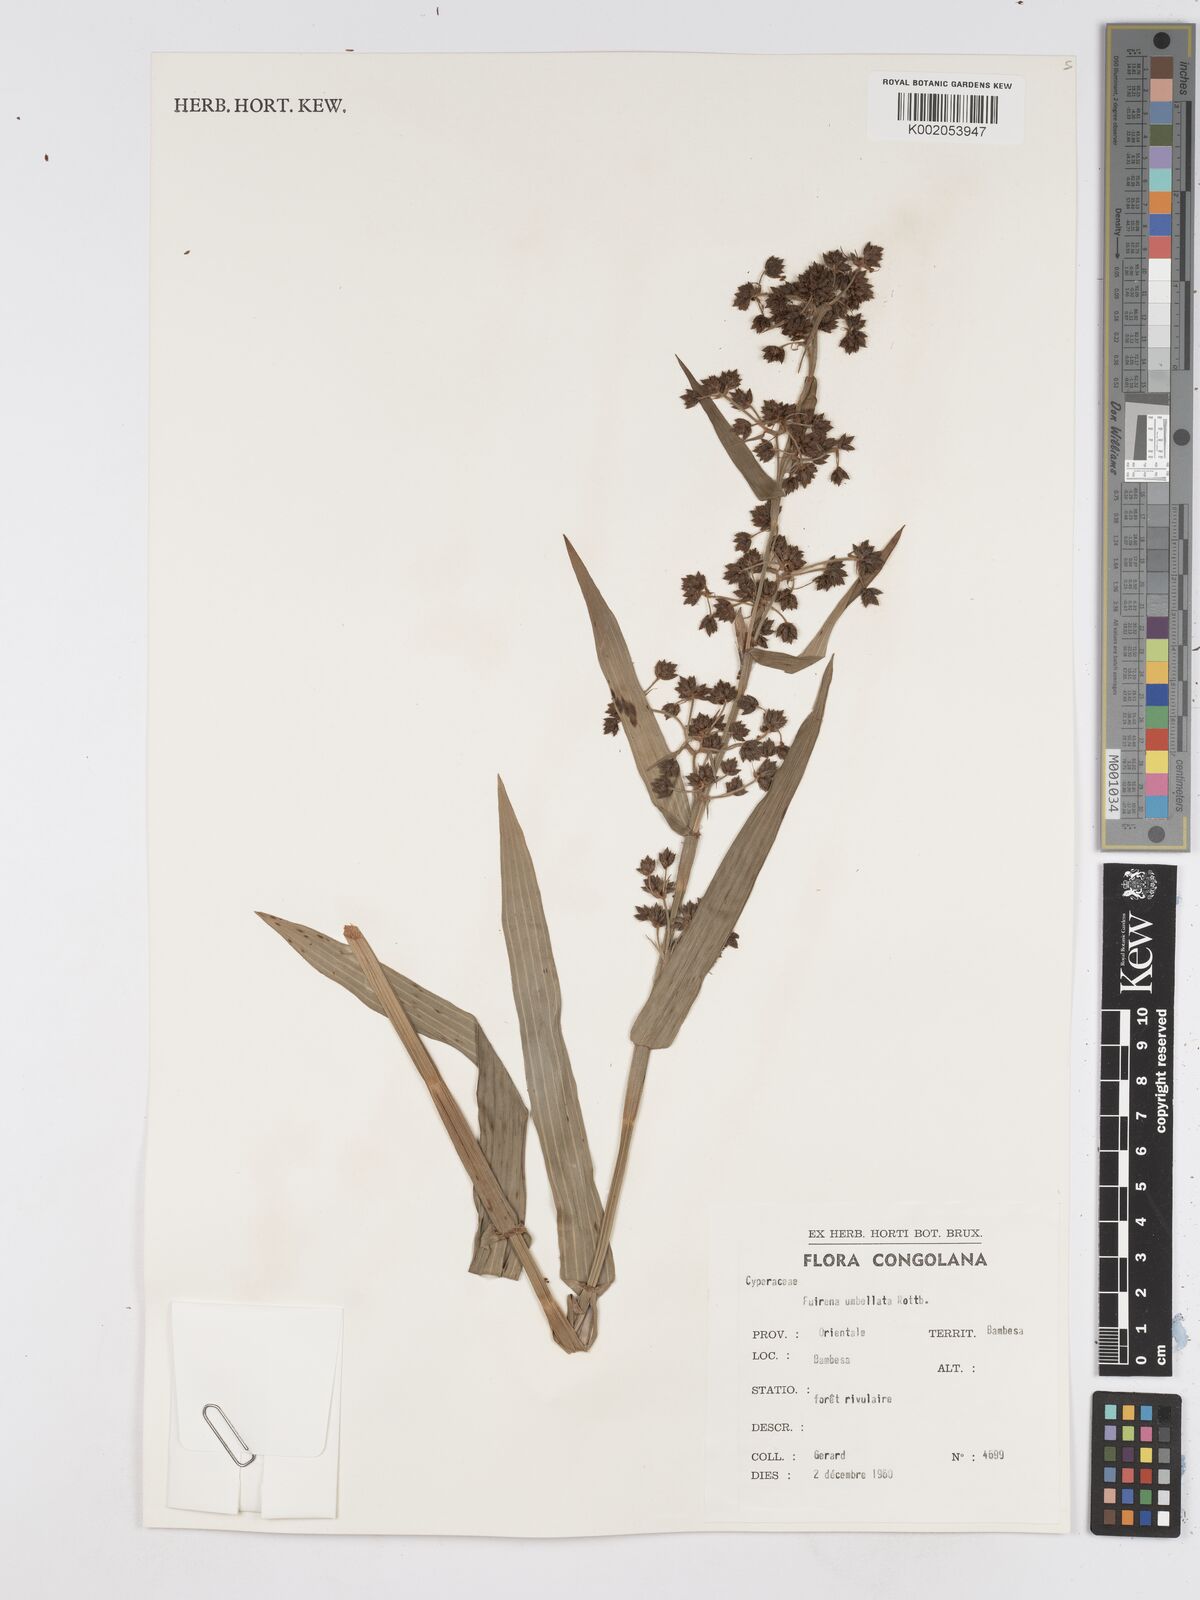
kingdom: Plantae
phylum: Tracheophyta
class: Liliopsida
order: Poales
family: Cyperaceae
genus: Fuirena
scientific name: Fuirena umbellata
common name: Yefen
